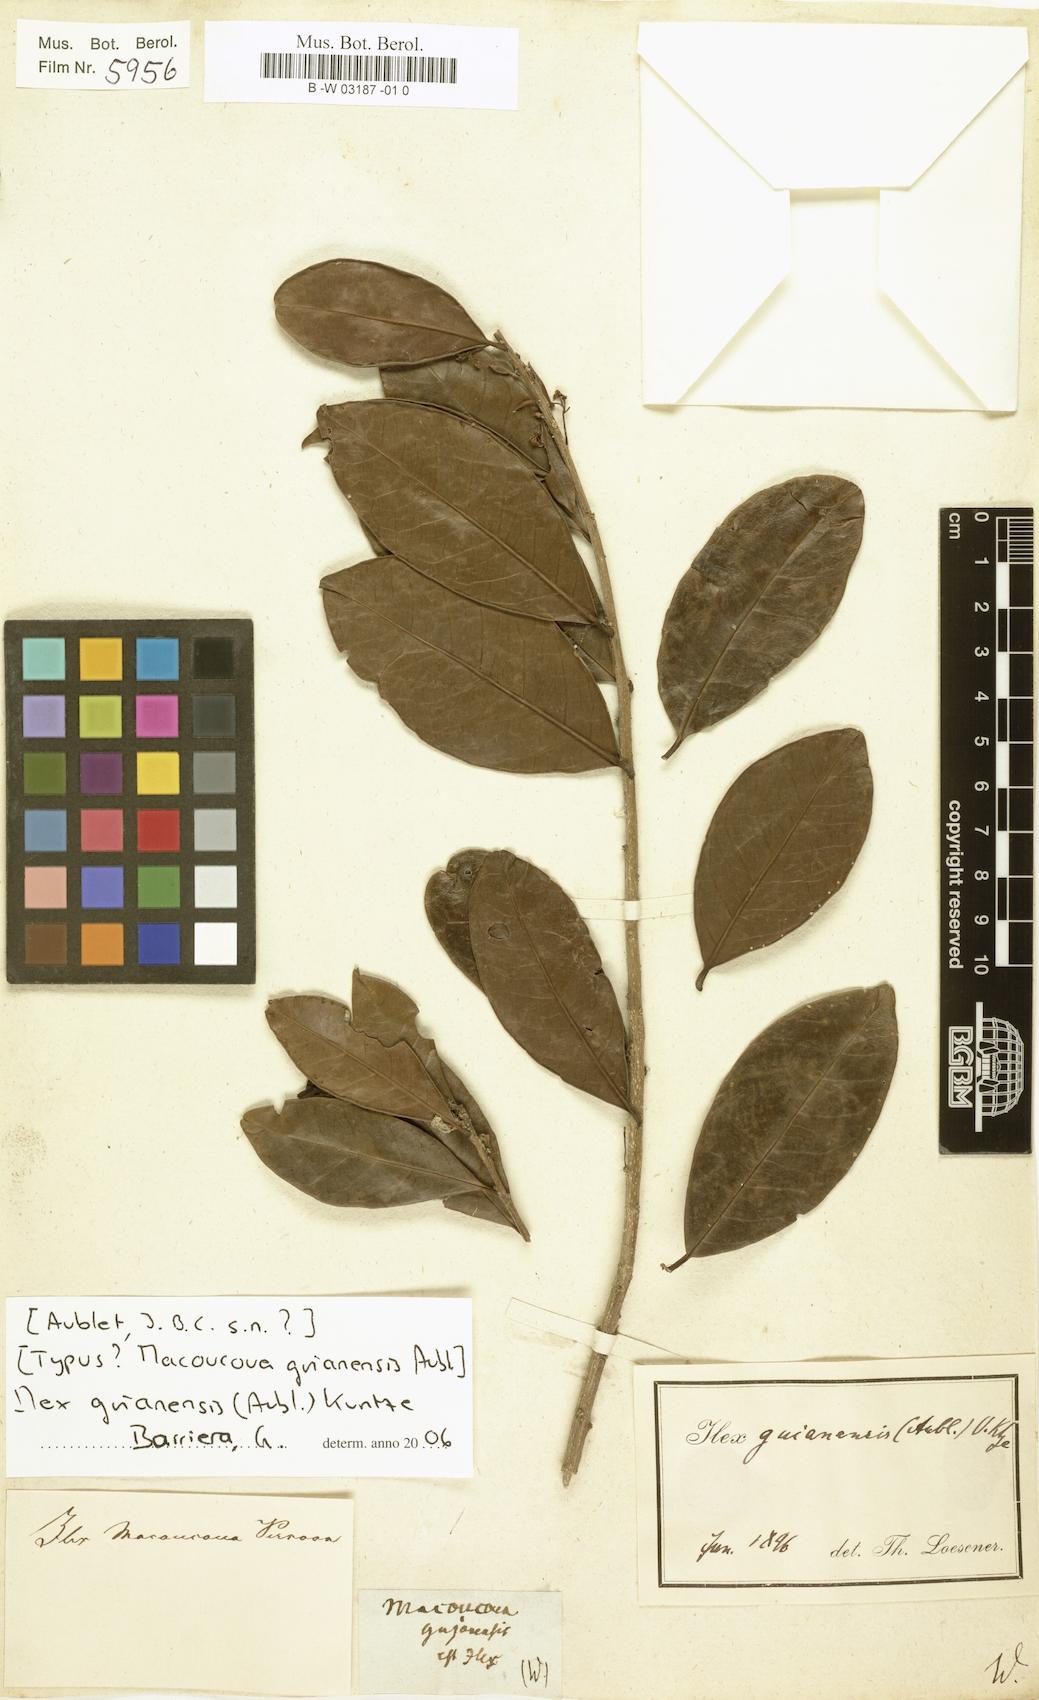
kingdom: Plantae
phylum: Tracheophyta
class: Magnoliopsida
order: Aquifoliales
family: Aquifoliaceae
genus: Ilex
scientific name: Ilex guianensis
